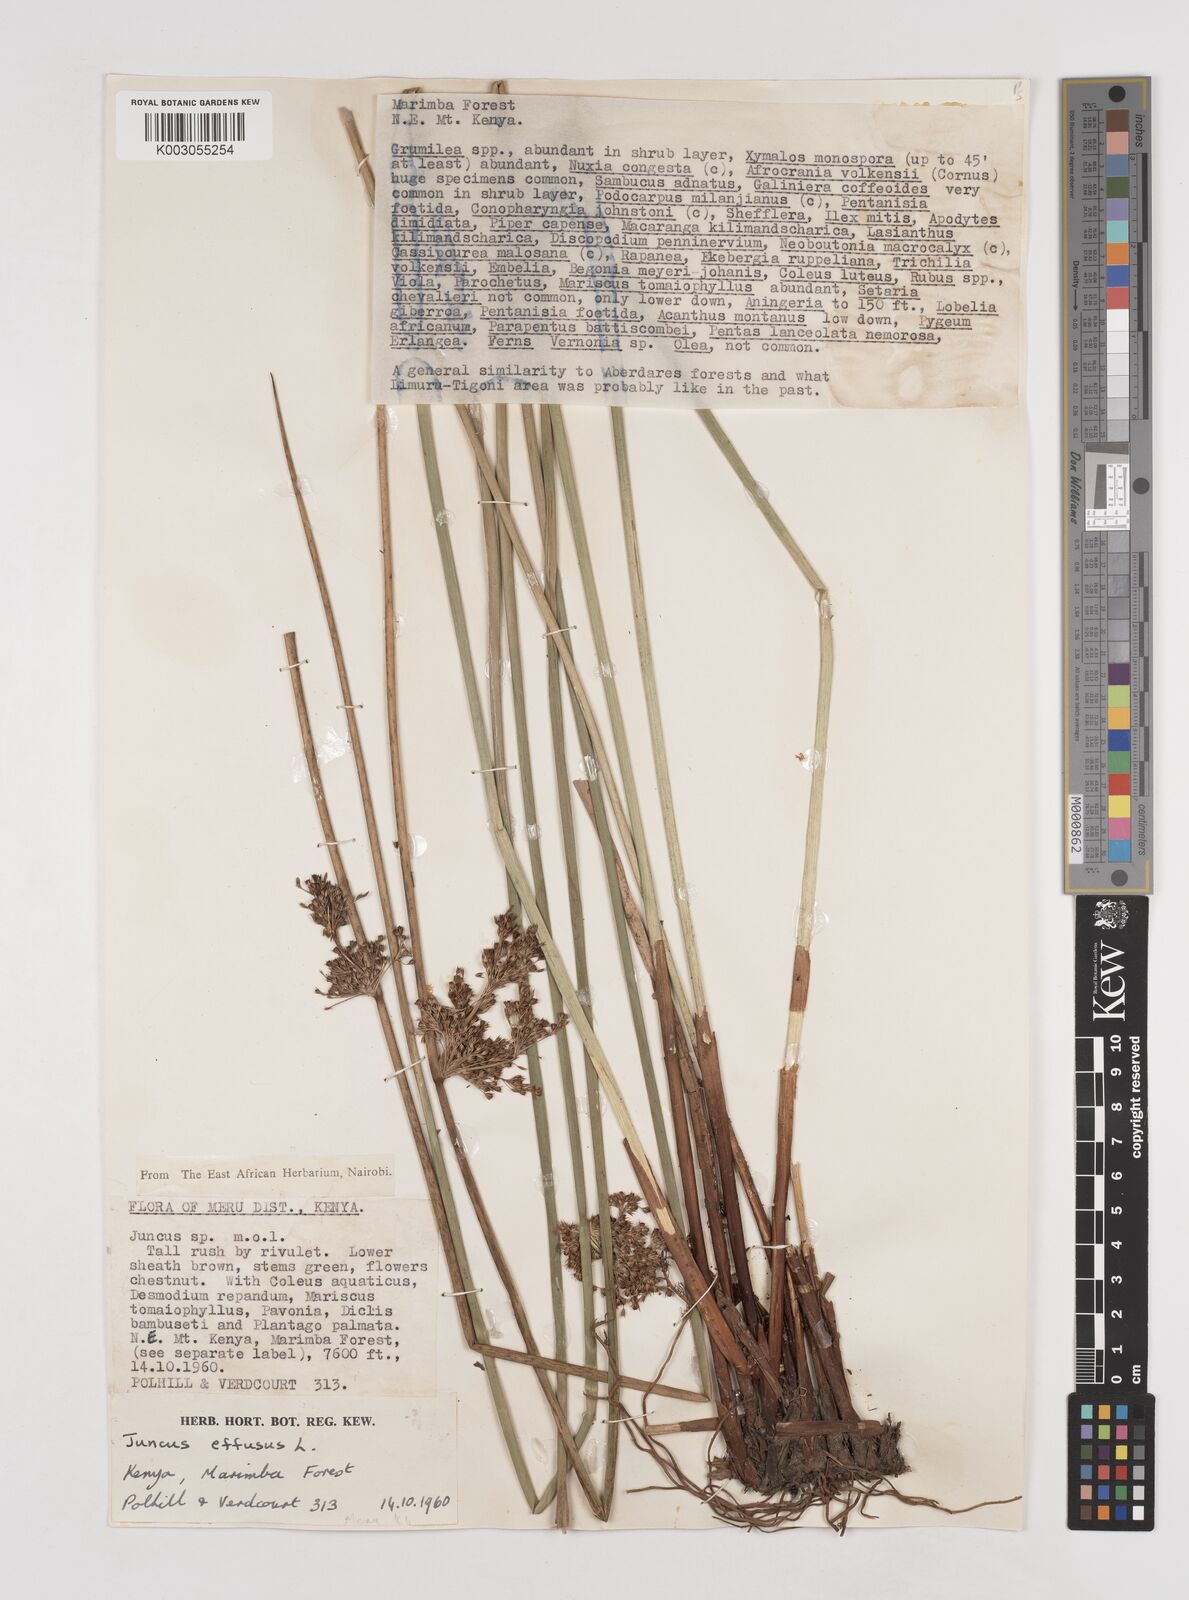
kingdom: Plantae
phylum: Tracheophyta
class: Liliopsida
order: Poales
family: Juncaceae
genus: Juncus
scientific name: Juncus effusus
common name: Soft rush
